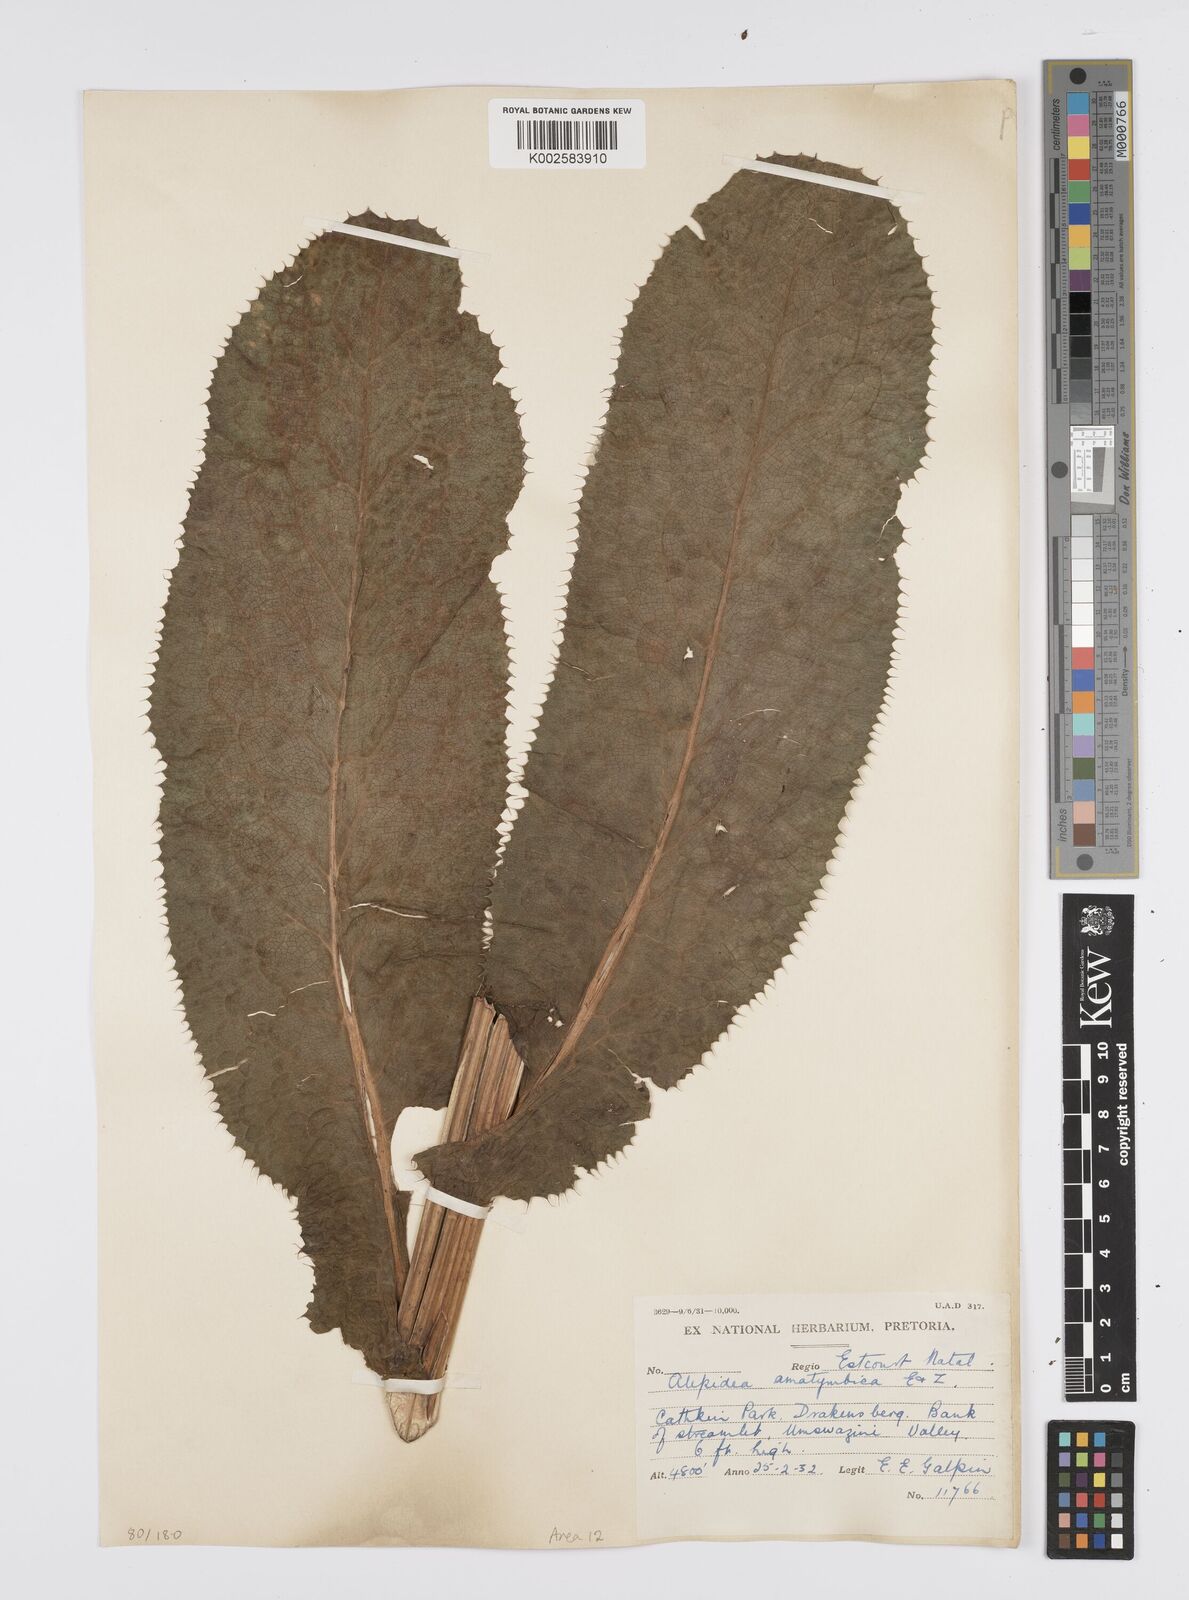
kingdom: Plantae
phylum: Tracheophyta
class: Magnoliopsida
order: Apiales
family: Apiaceae
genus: Alepidea
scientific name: Alepidea amatymbica
